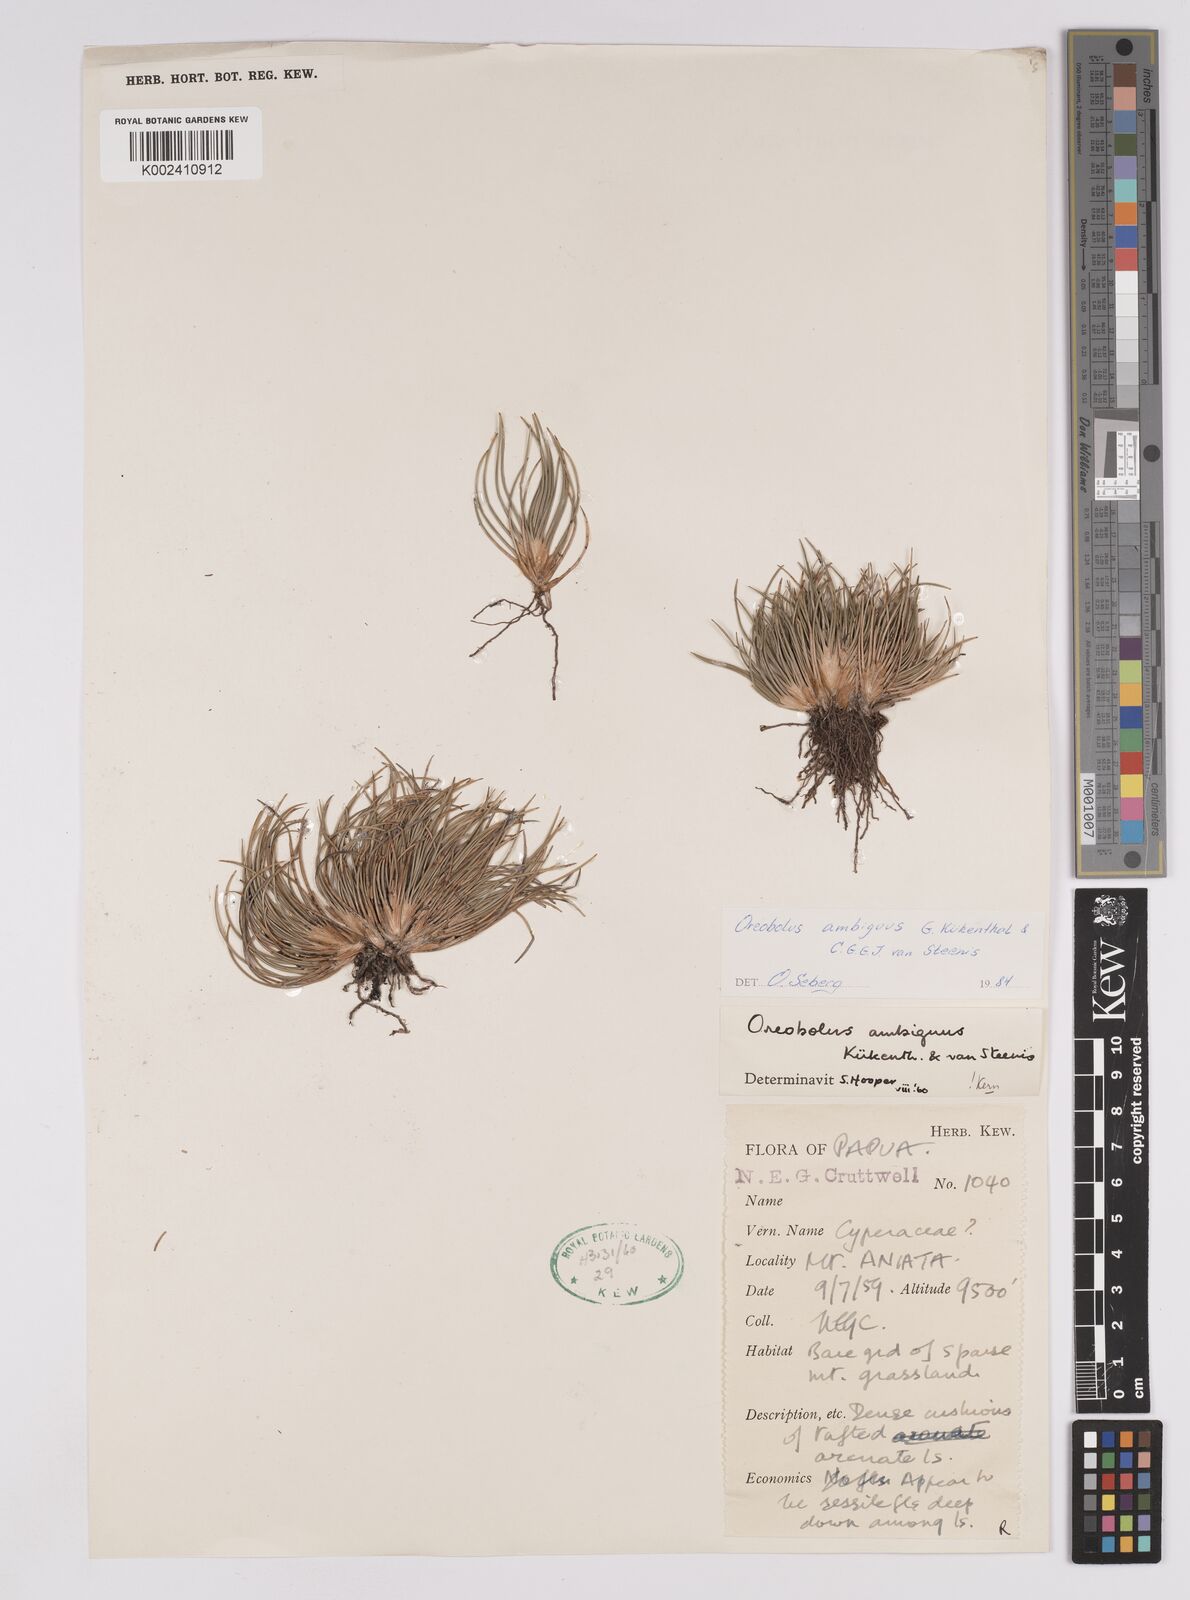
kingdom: Plantae
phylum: Tracheophyta
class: Liliopsida
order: Poales
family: Cyperaceae
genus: Oreobolus
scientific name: Oreobolus ambiguus
